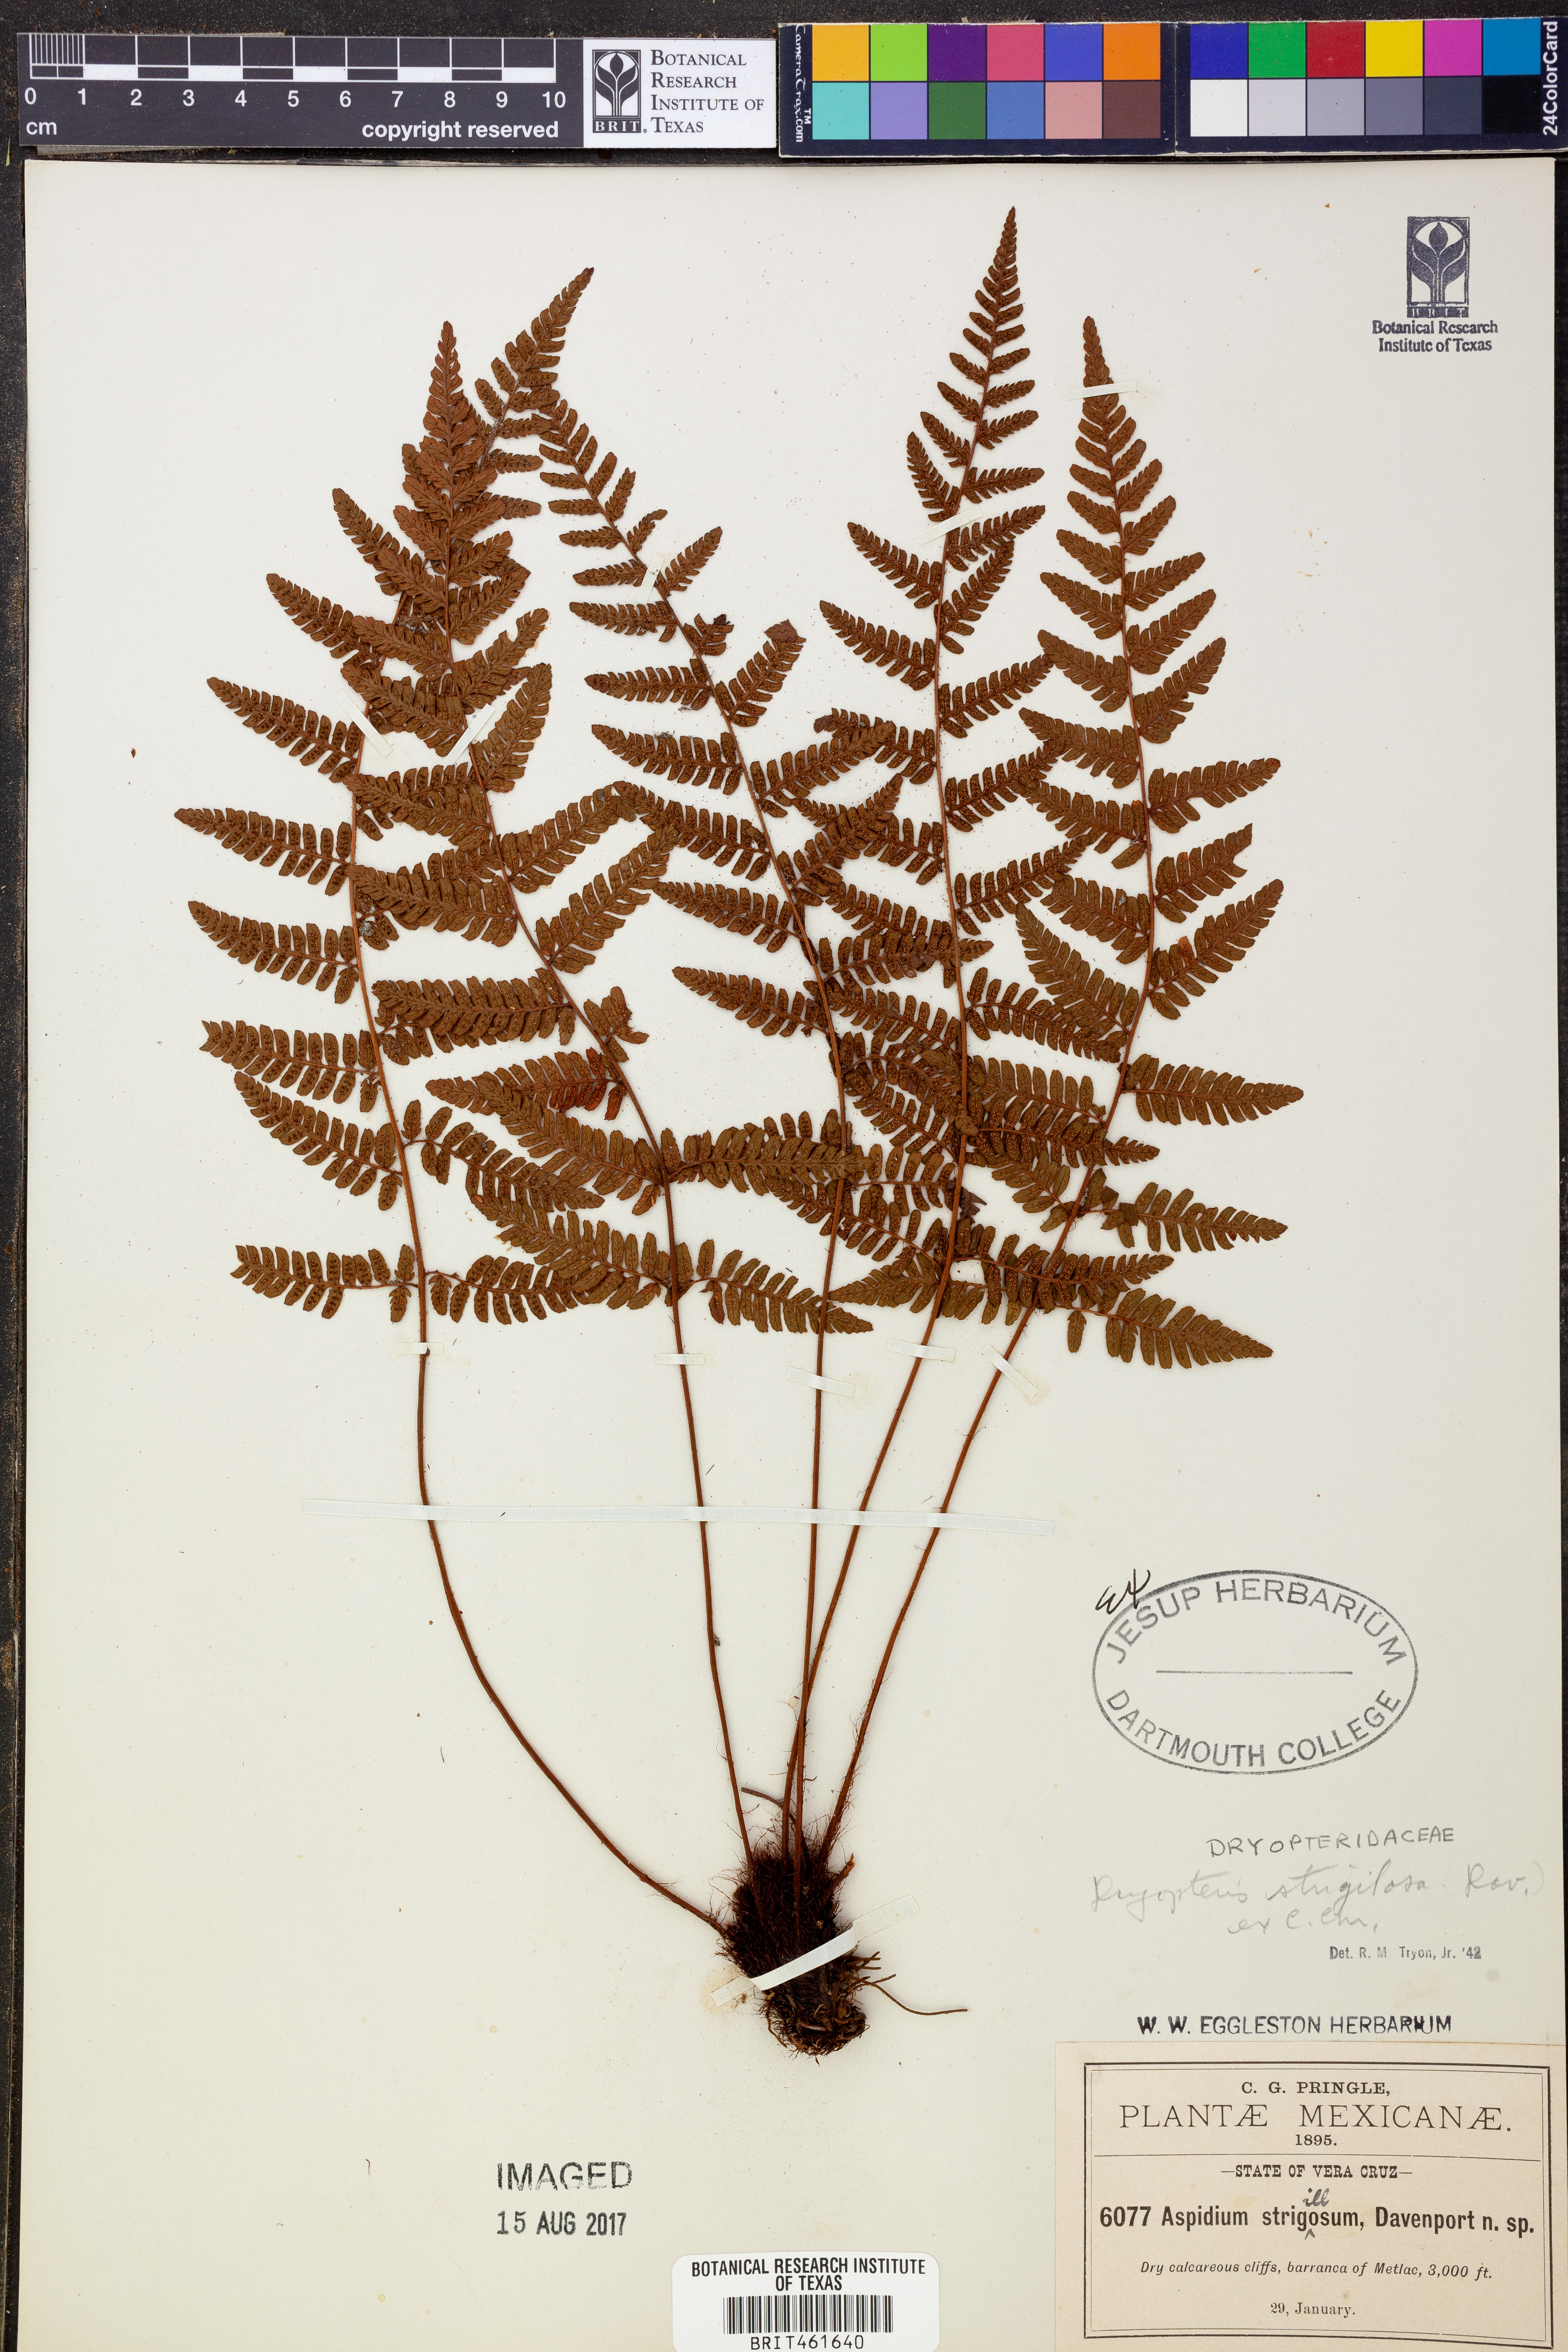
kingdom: Plantae
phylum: Tracheophyta
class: Polypodiopsida
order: Polypodiales
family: Dryopteridaceae
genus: Ctenitis
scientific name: Ctenitis strigilosa
